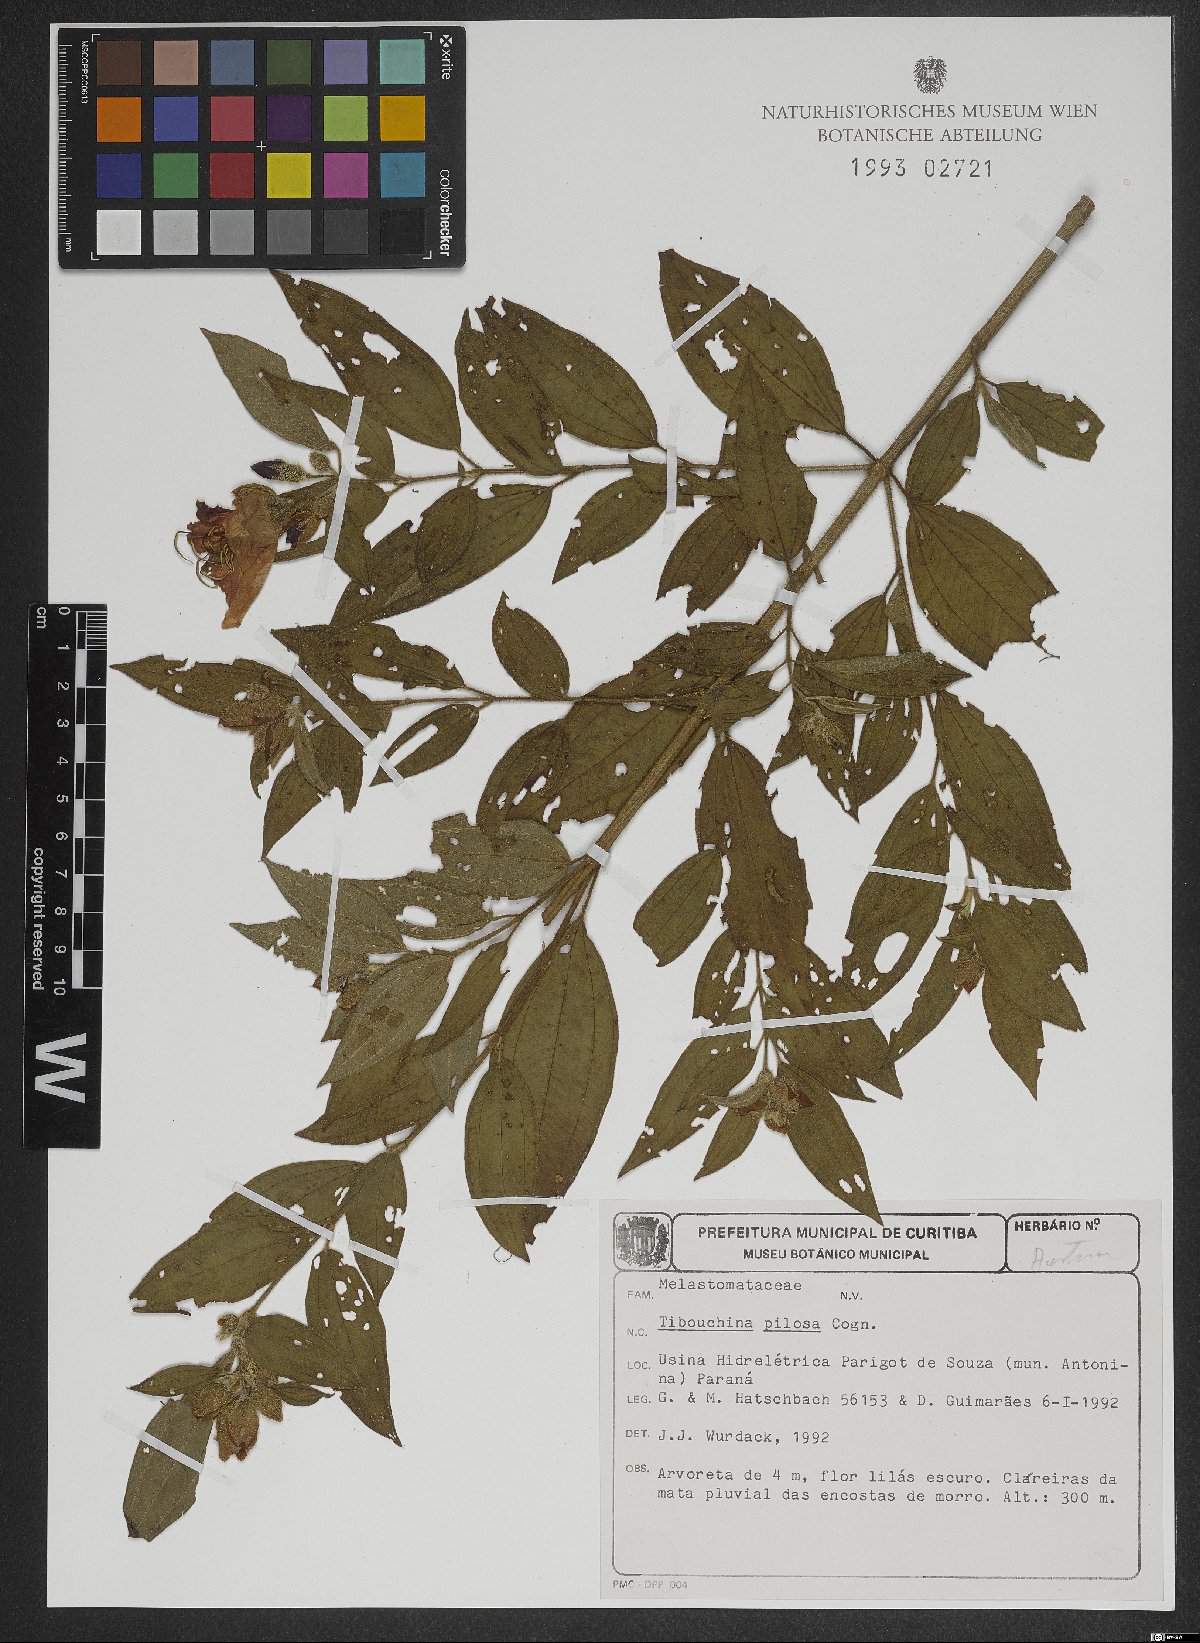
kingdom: Plantae
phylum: Tracheophyta
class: Magnoliopsida
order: Myrtales
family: Melastomataceae
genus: Pleroma
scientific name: Pleroma pilosum
